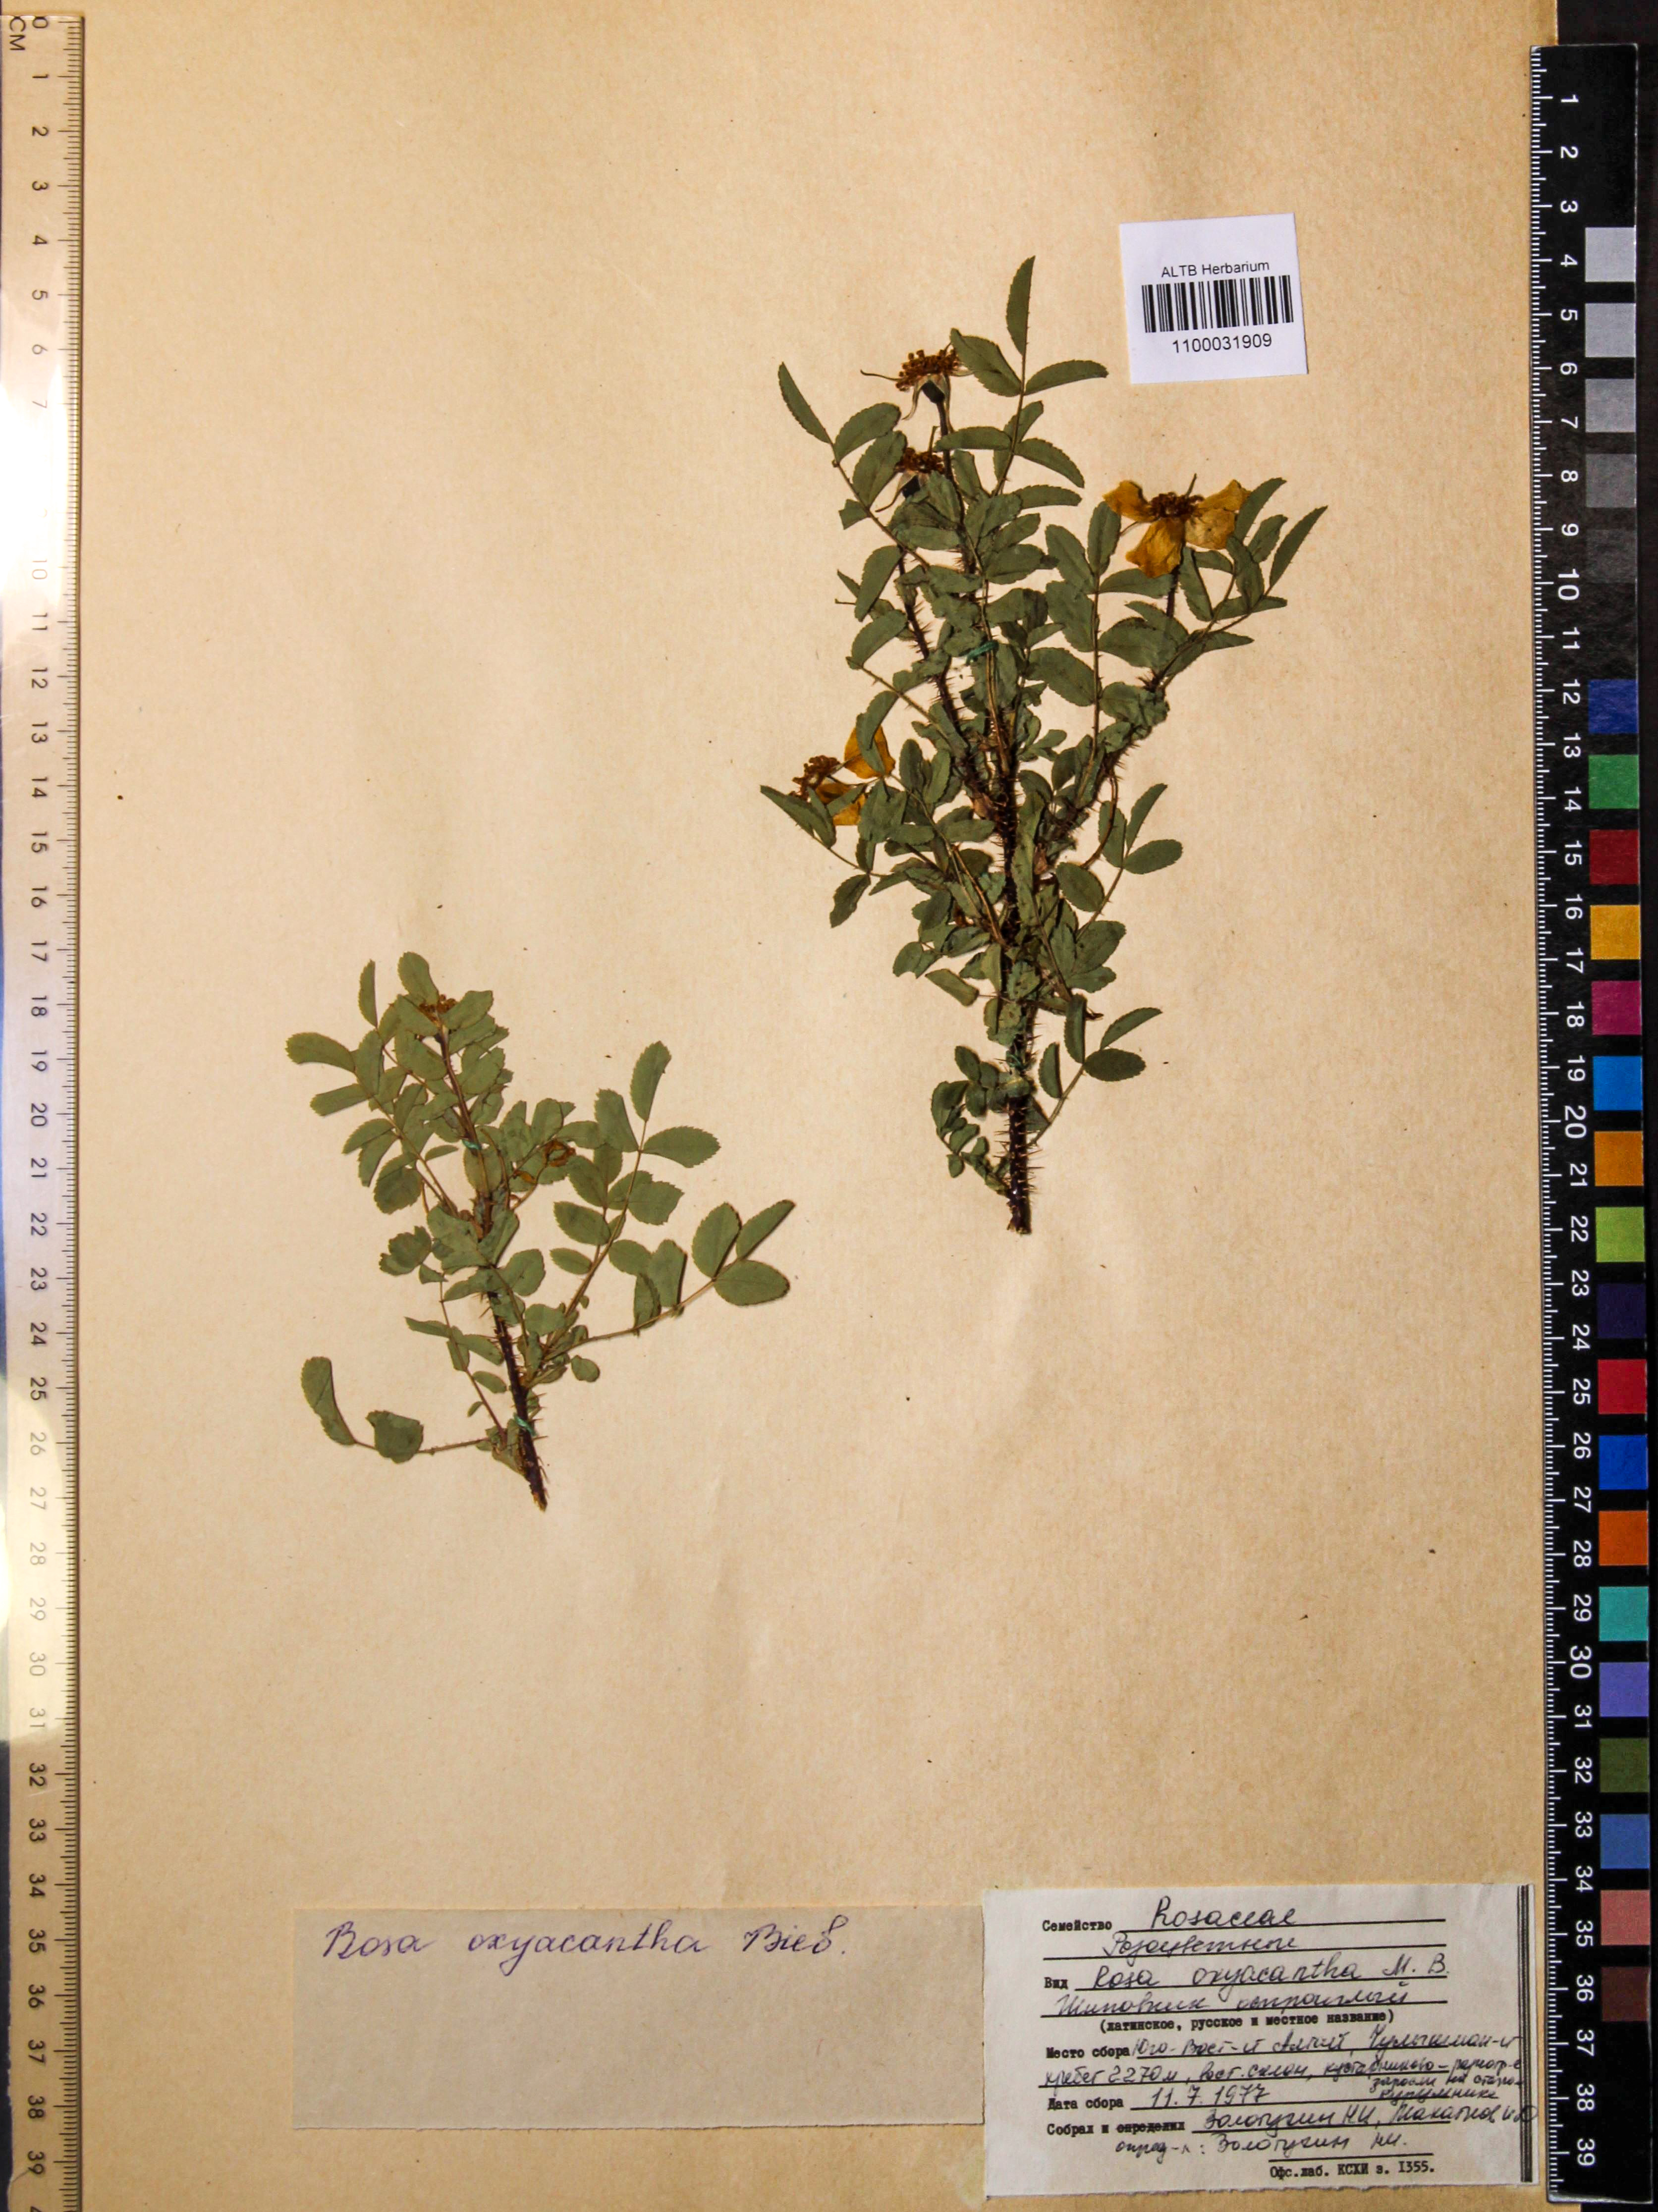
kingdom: Plantae
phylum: Tracheophyta
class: Magnoliopsida
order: Rosales
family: Rosaceae
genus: Rosa
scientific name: Rosa oxyacantha
